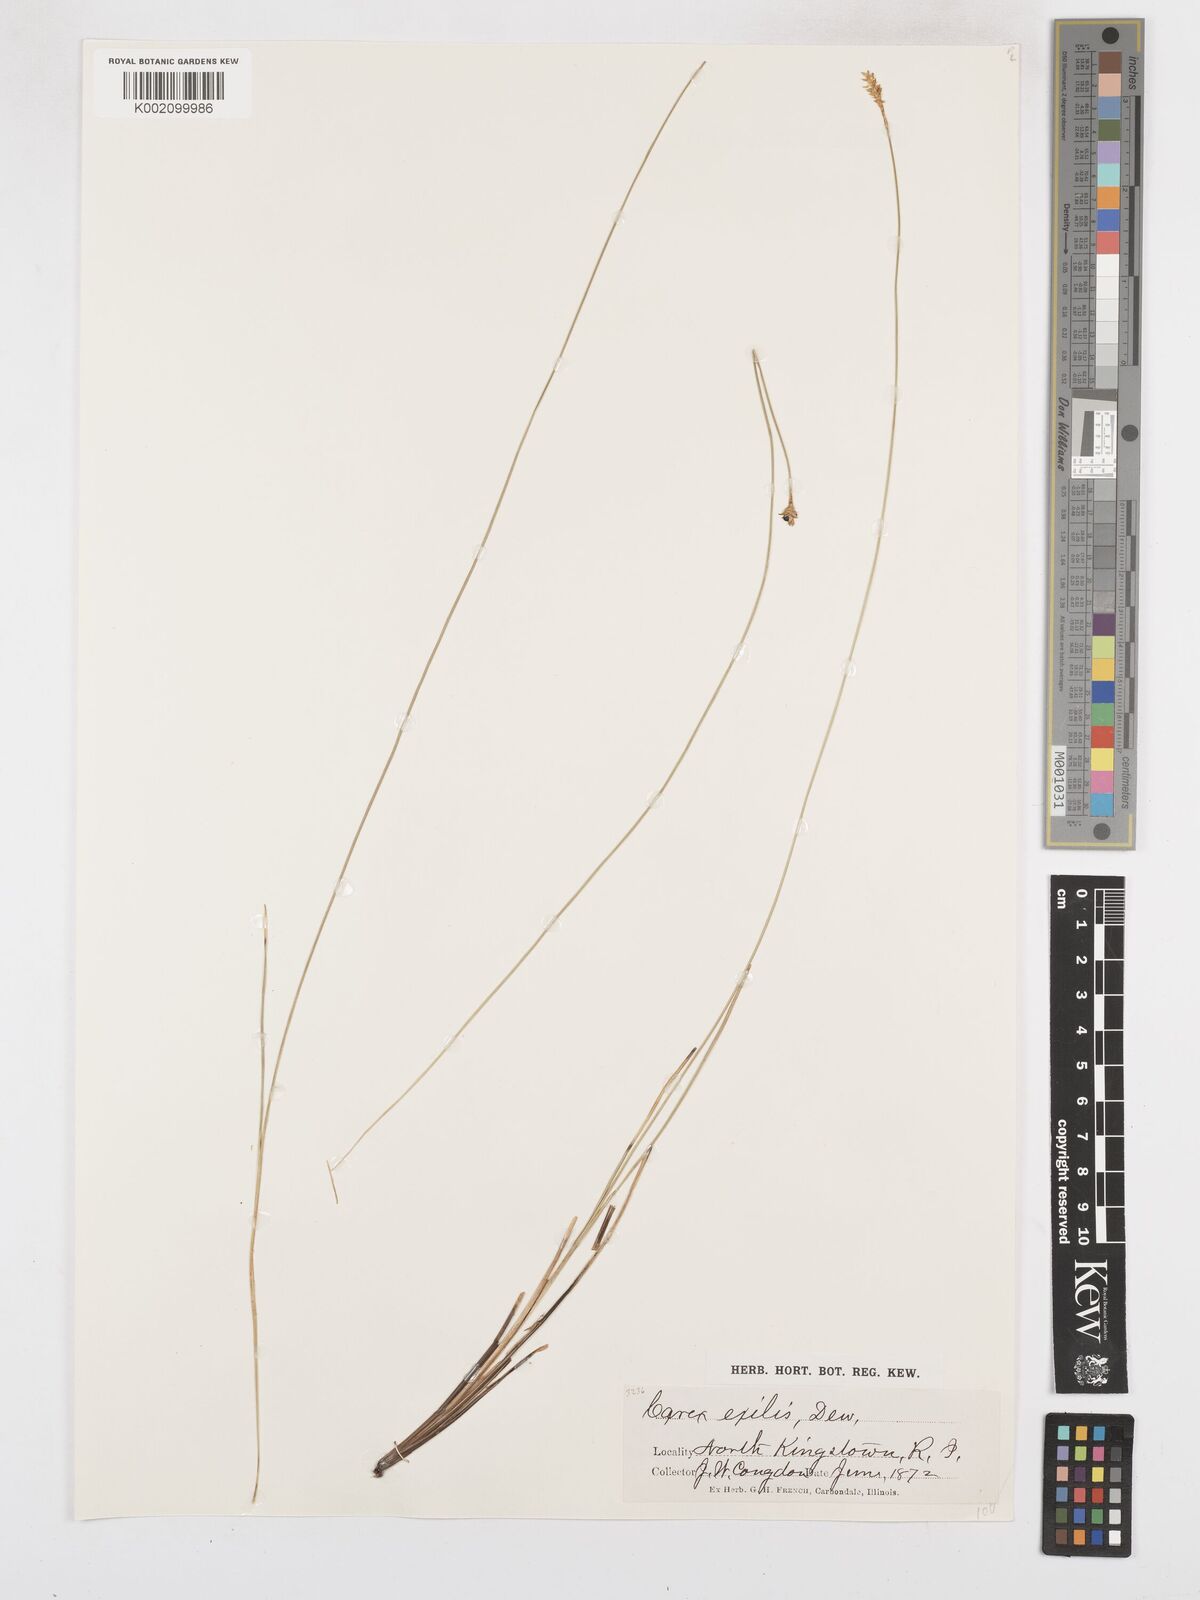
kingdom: Plantae
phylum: Tracheophyta
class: Liliopsida
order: Poales
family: Cyperaceae
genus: Carex
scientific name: Carex exilis
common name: Coastal sedge
